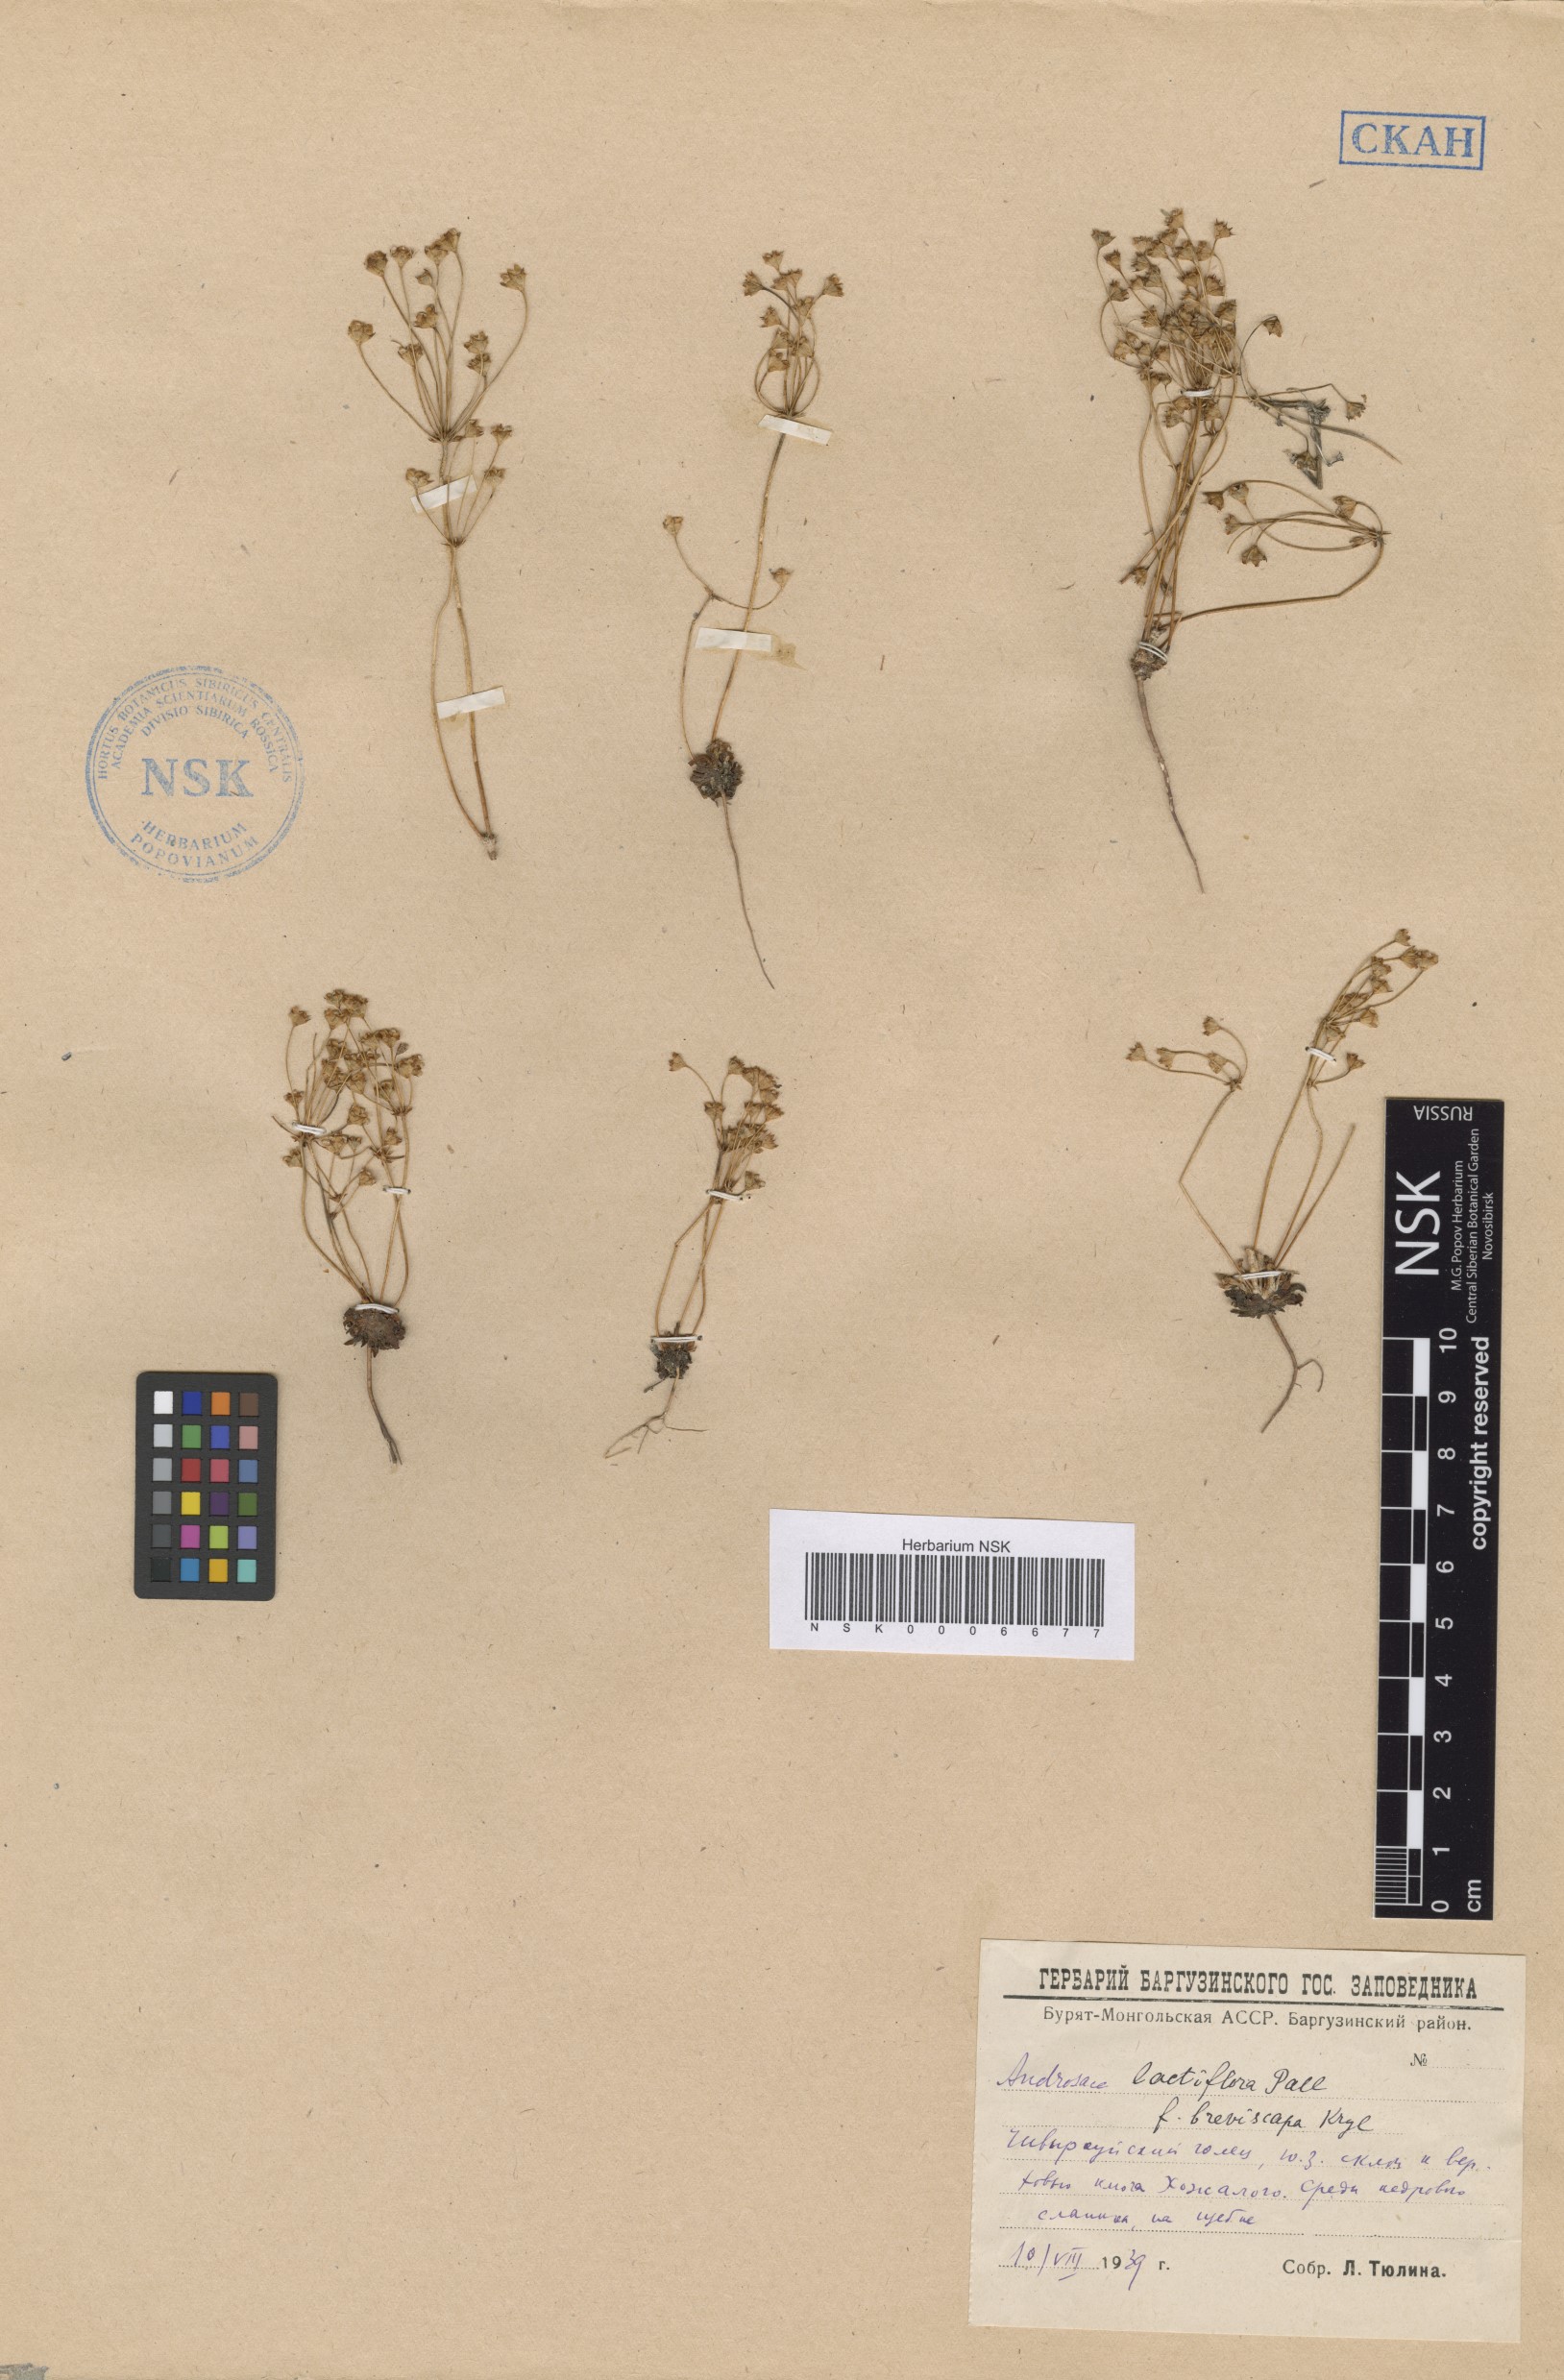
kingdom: Plantae
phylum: Tracheophyta
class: Magnoliopsida
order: Ericales
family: Primulaceae
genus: Androsace
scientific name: Androsace lactiflora
